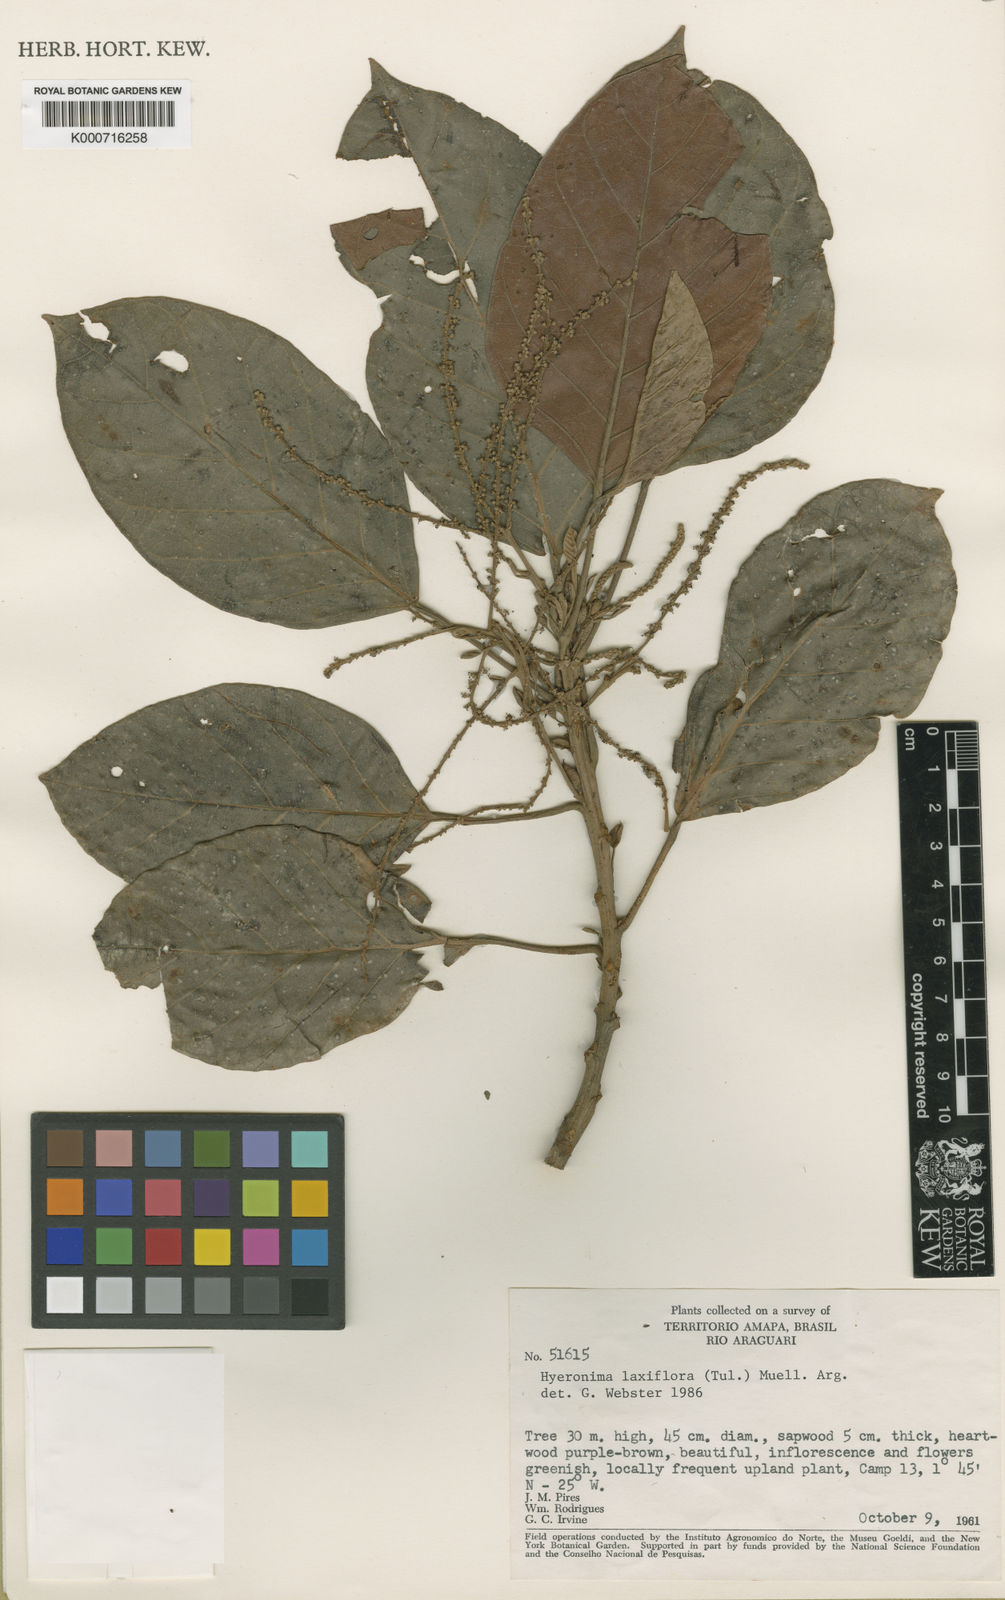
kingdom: Plantae
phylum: Tracheophyta
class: Magnoliopsida
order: Malpighiales
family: Phyllanthaceae
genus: Hieronyma
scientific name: Hieronyma
